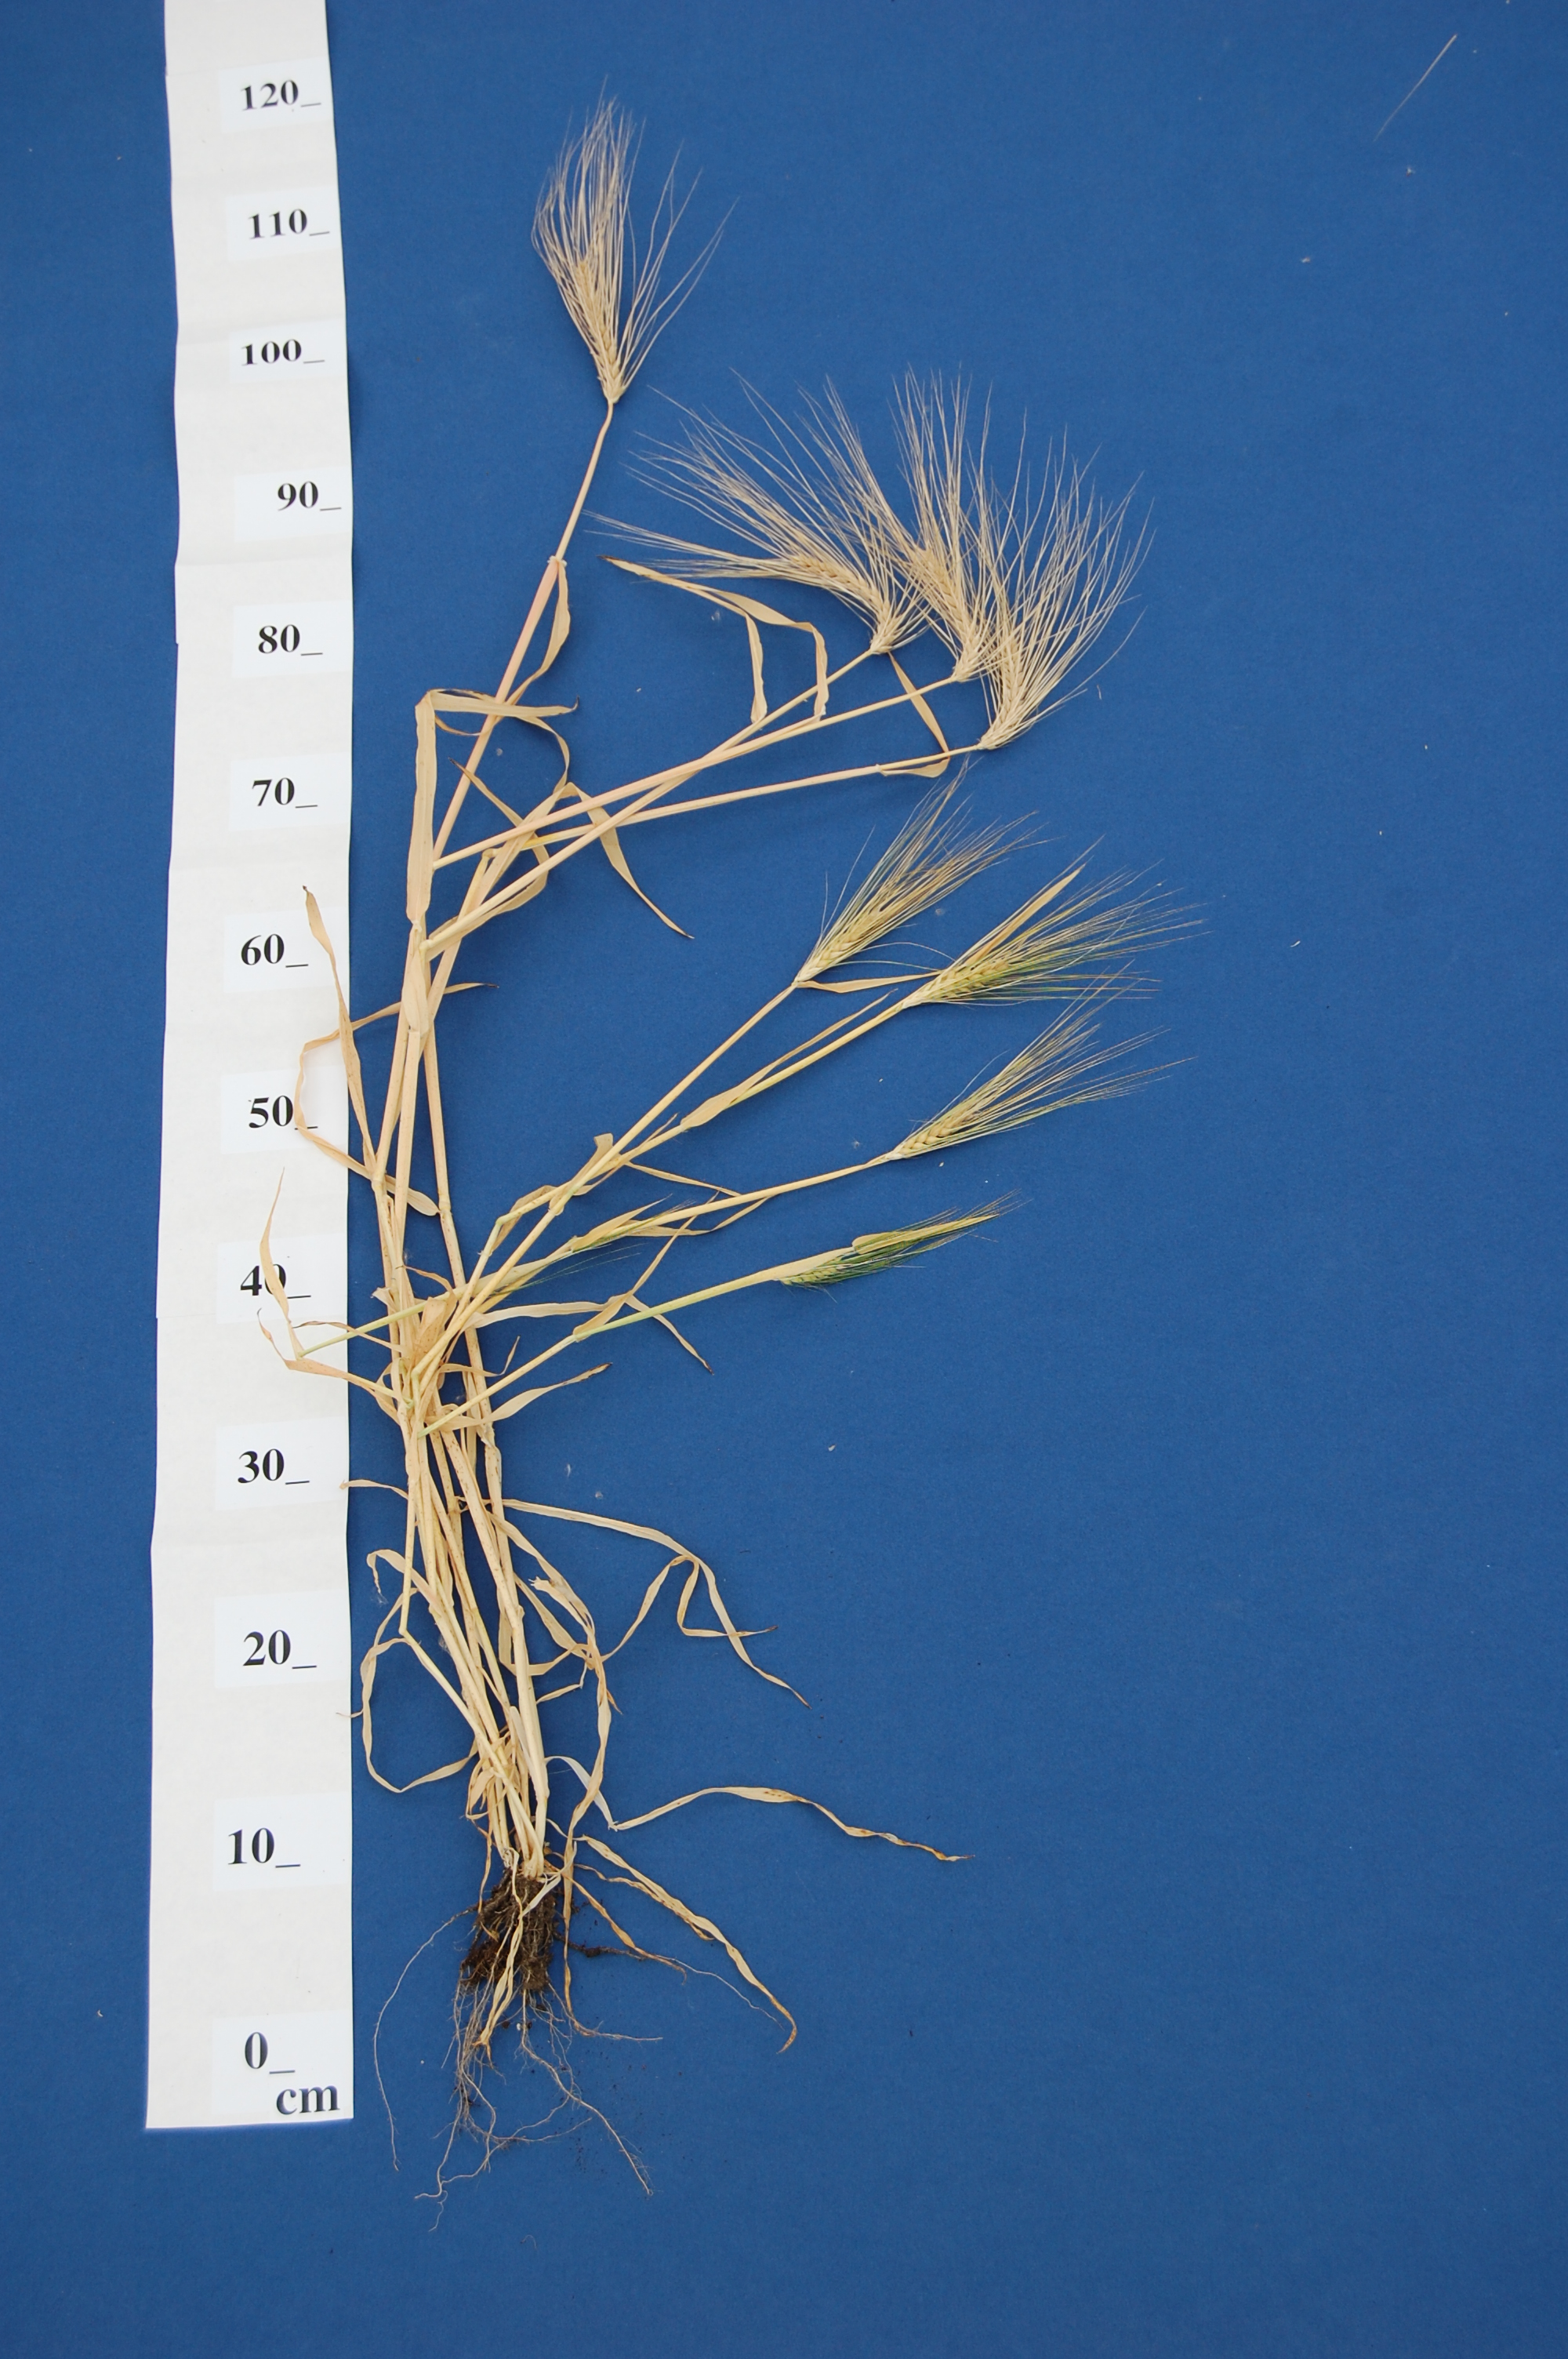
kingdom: Plantae
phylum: Tracheophyta
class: Liliopsida
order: Poales
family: Poaceae
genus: Hordeum
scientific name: Hordeum vulgare
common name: Common barley
